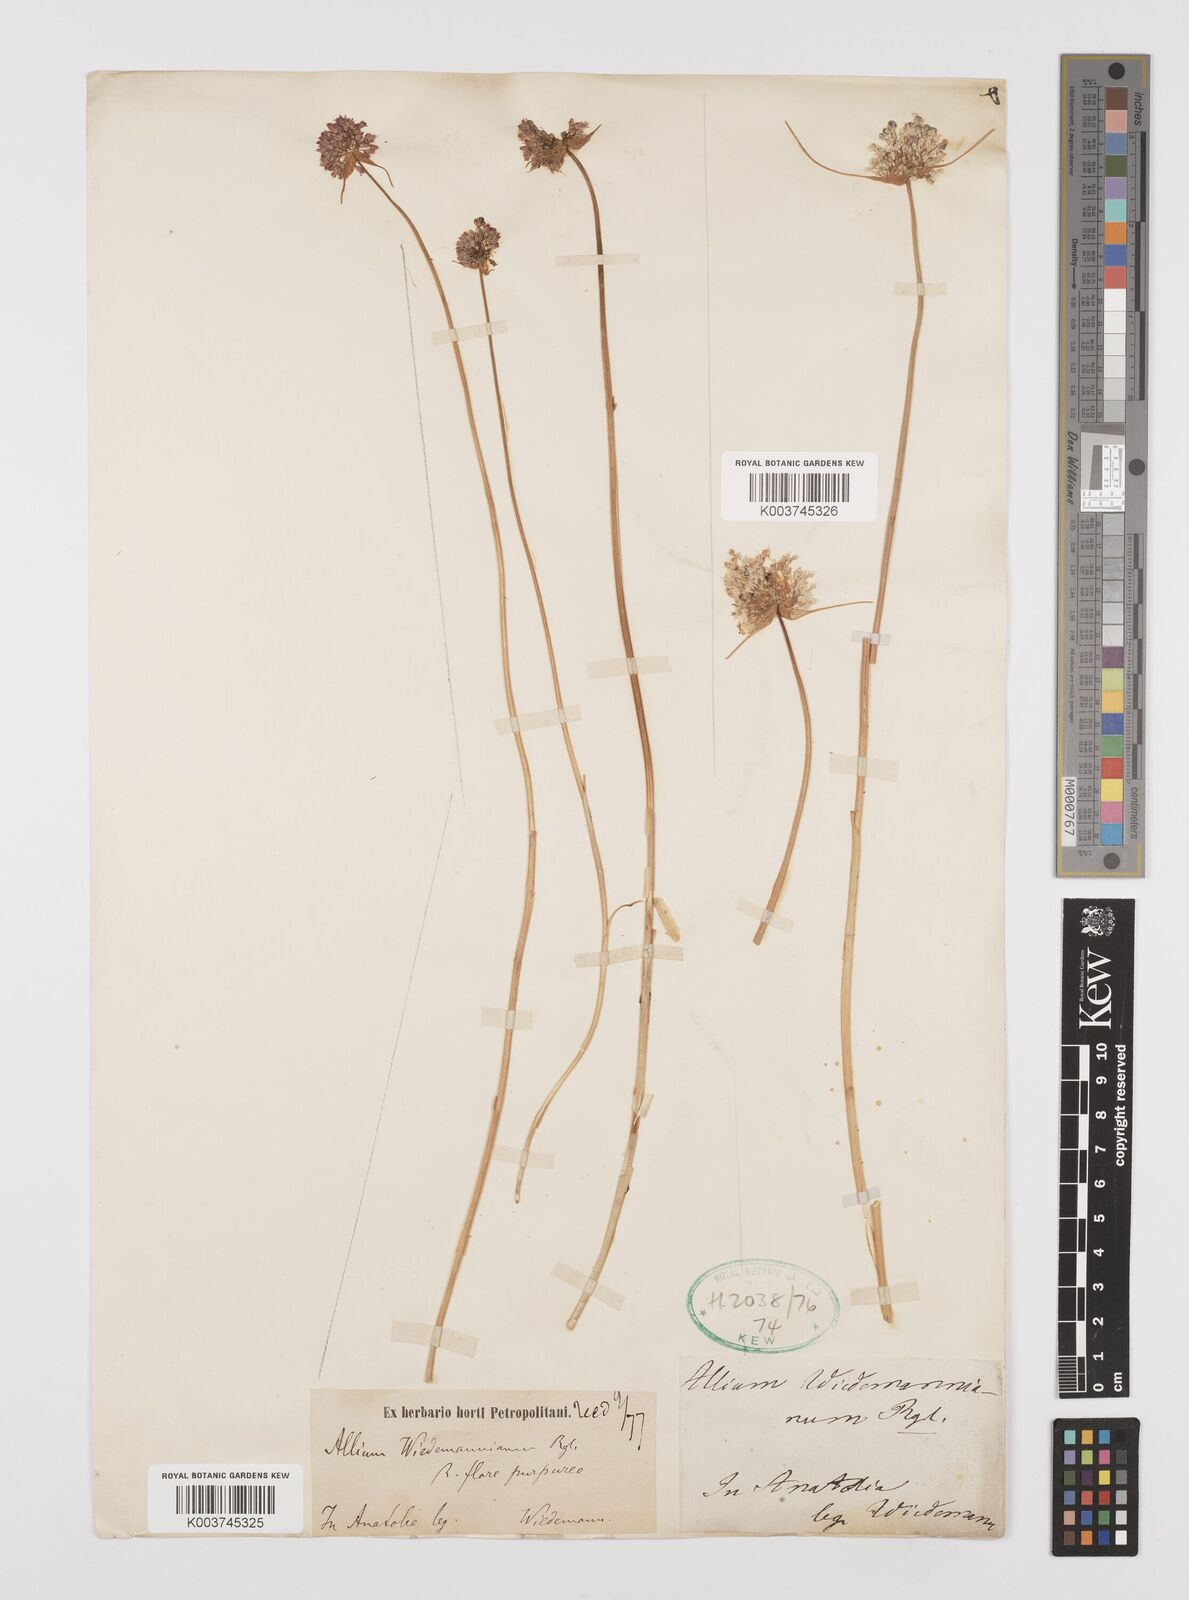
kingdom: Plantae
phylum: Tracheophyta
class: Liliopsida
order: Asparagales
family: Amaryllidaceae
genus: Allium
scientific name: Allium wiedemannianum
